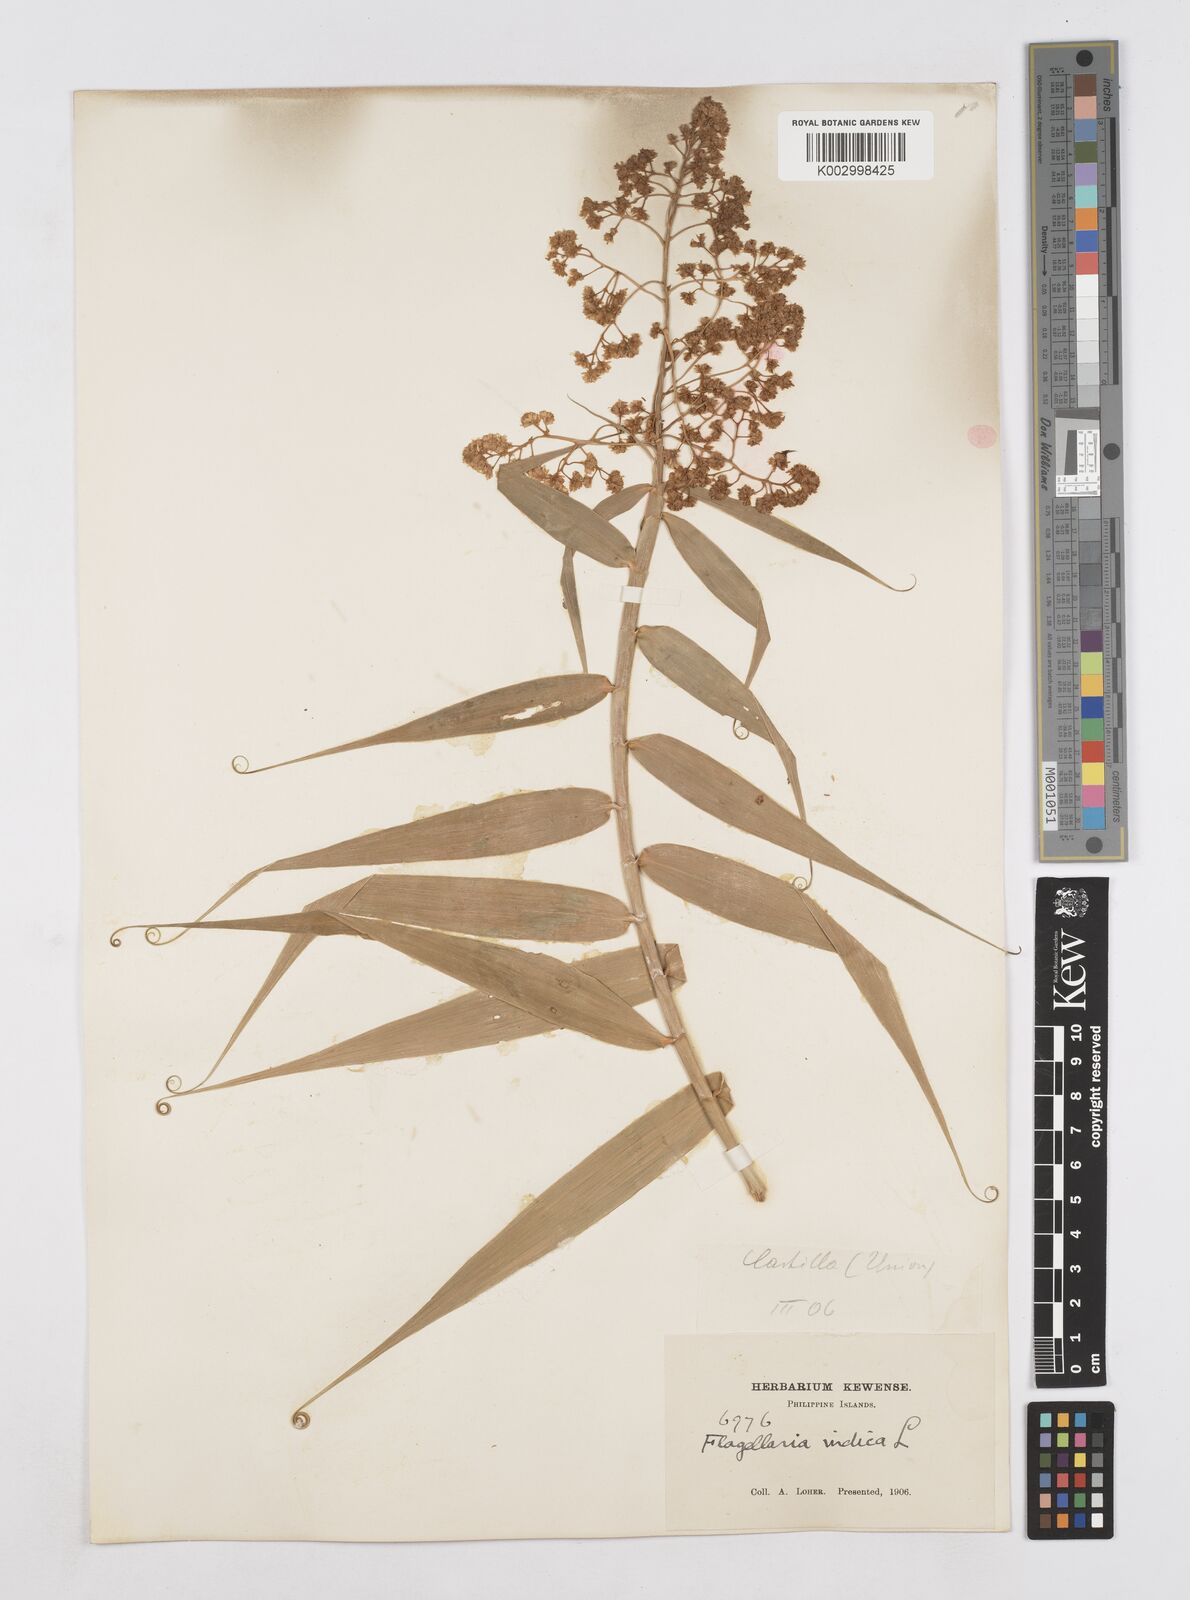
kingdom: Plantae
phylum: Tracheophyta
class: Liliopsida
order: Poales
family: Flagellariaceae
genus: Flagellaria
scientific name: Flagellaria indica
